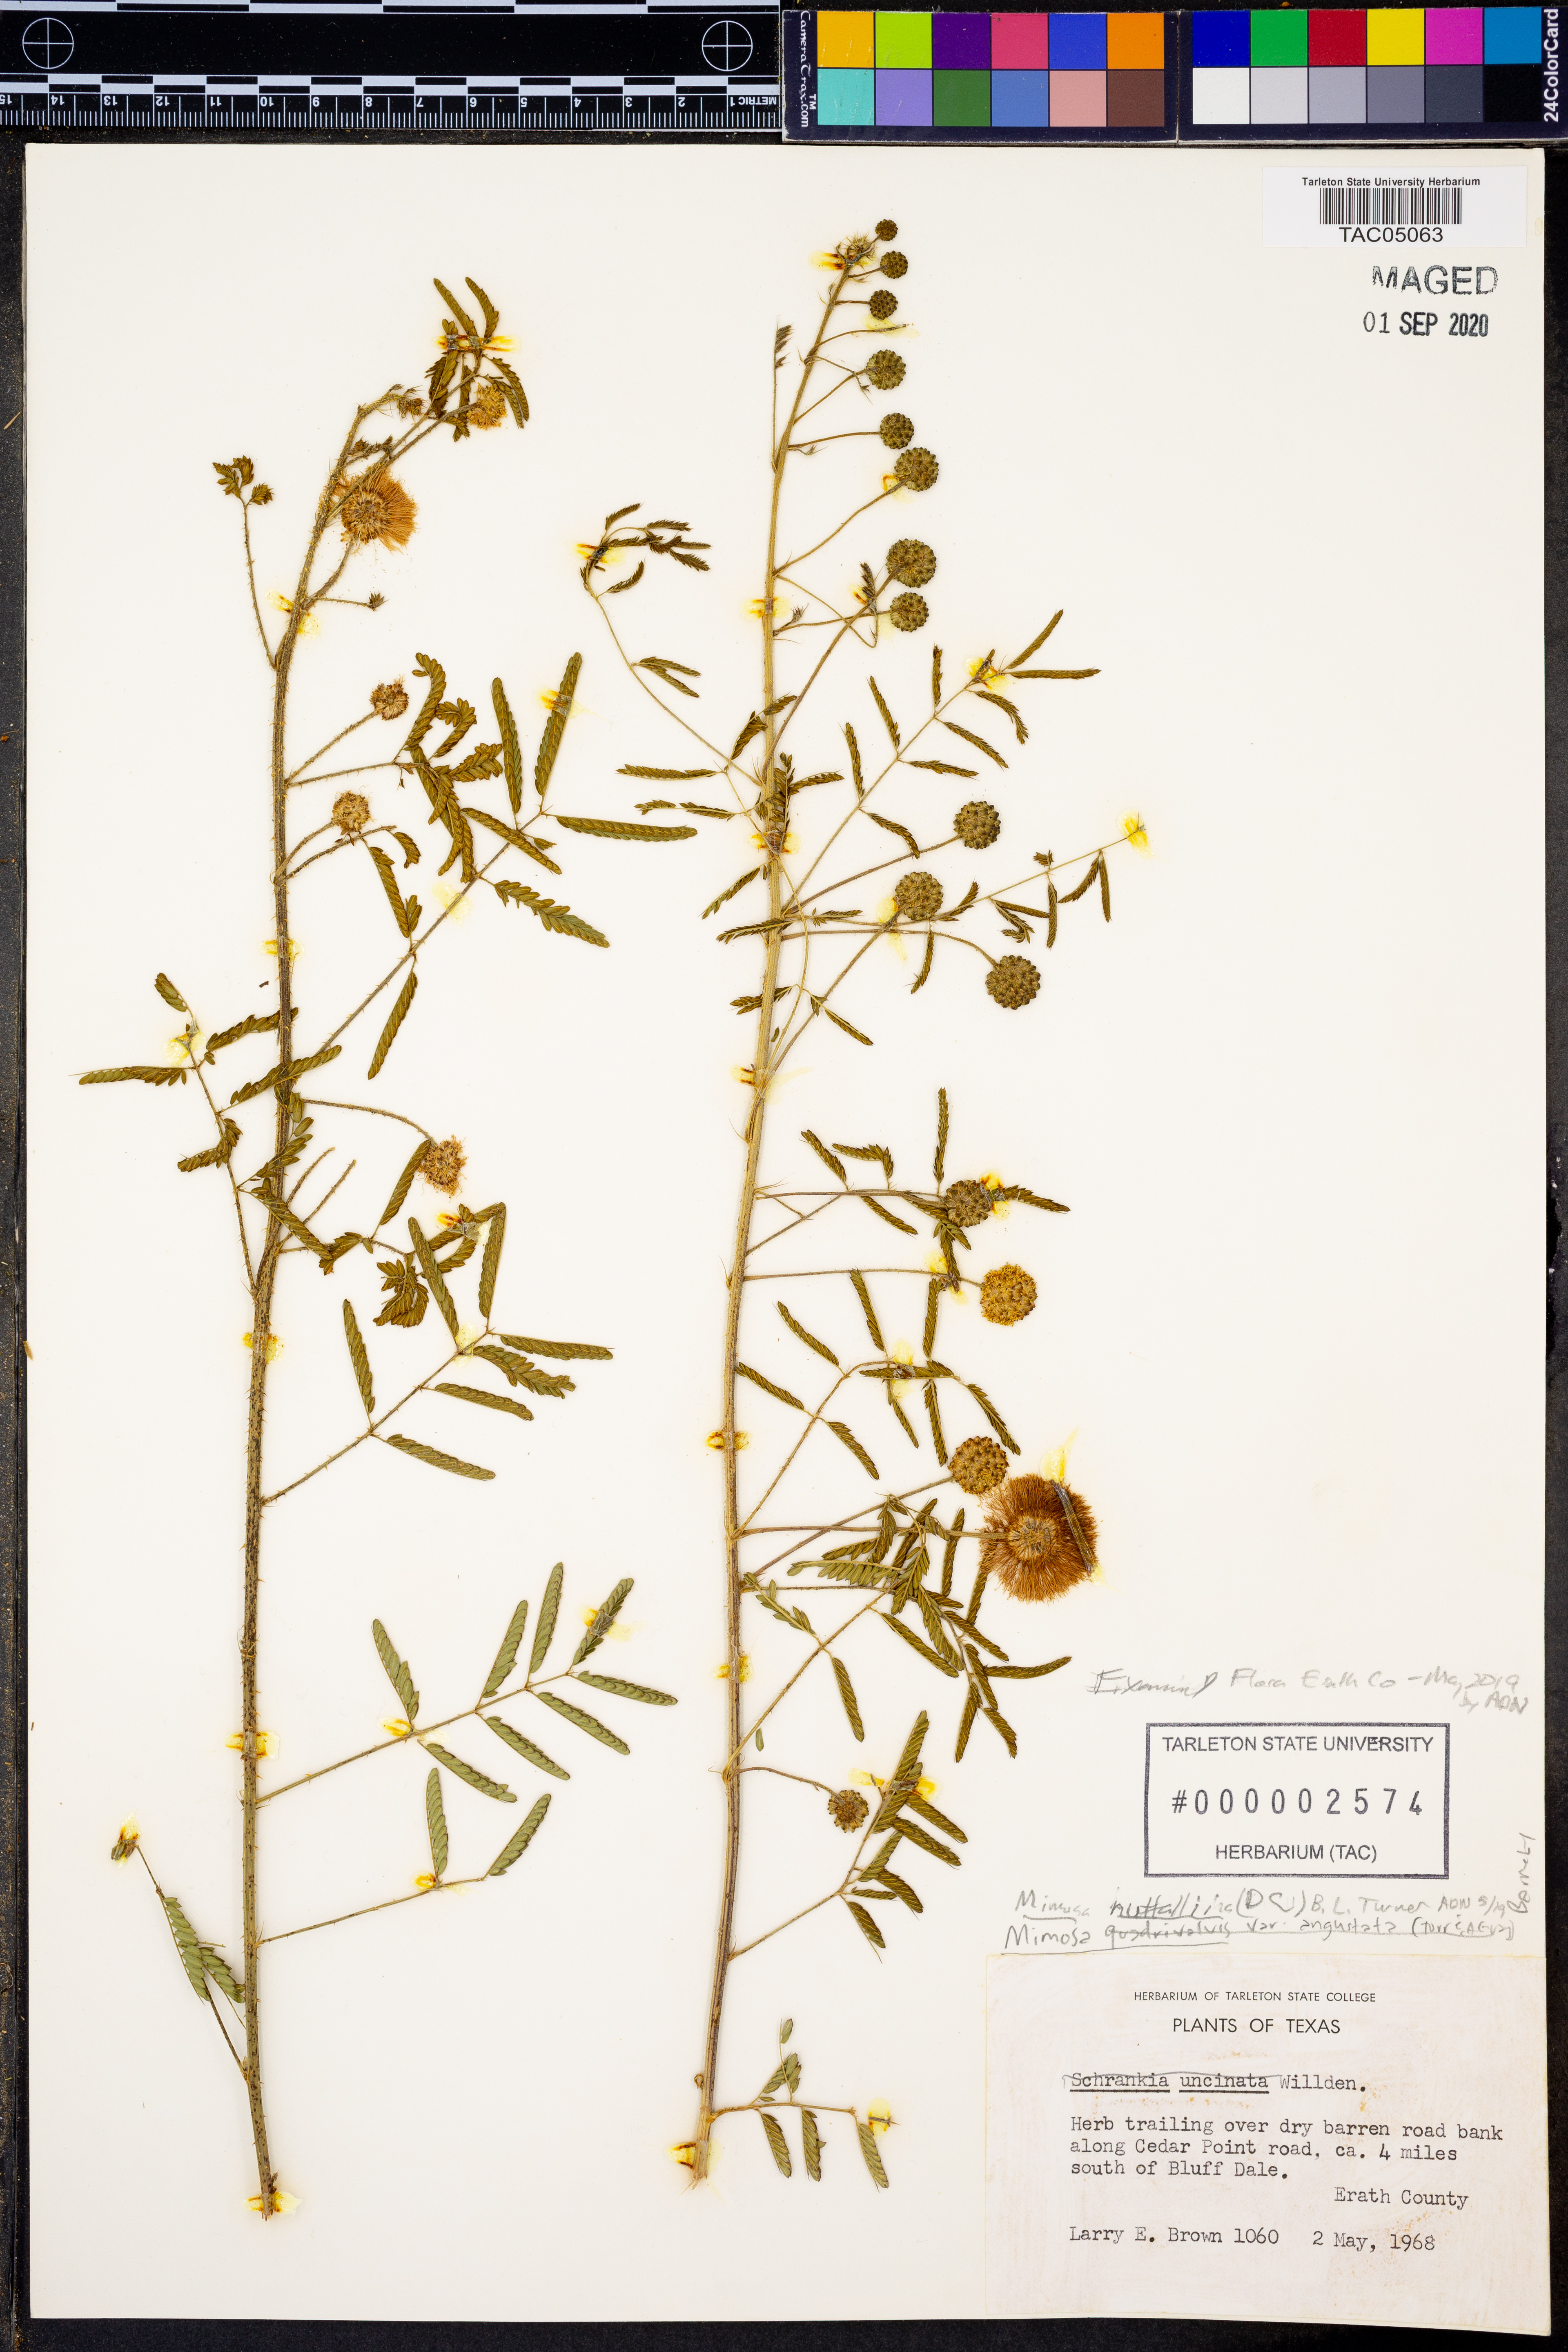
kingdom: Plantae
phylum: Tracheophyta
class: Magnoliopsida
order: Fabales
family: Fabaceae
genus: Mimosa
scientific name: Mimosa quadrivalvis
